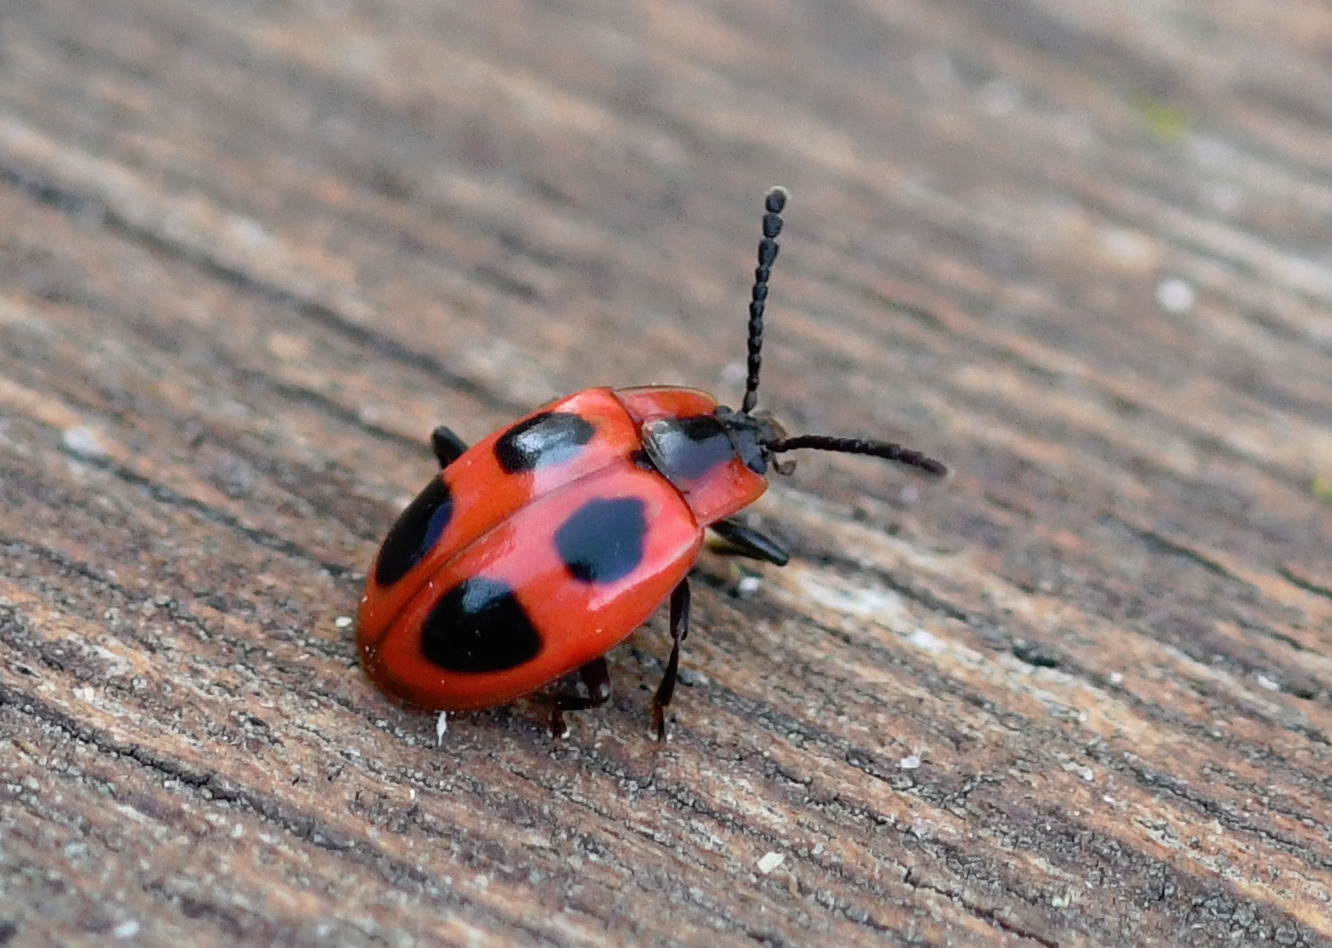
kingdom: Animalia
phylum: Arthropoda
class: Insecta
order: Coleoptera
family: Endomychidae
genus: Endomychus
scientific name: Endomychus coccineus
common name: Skarlagensvampehøne
